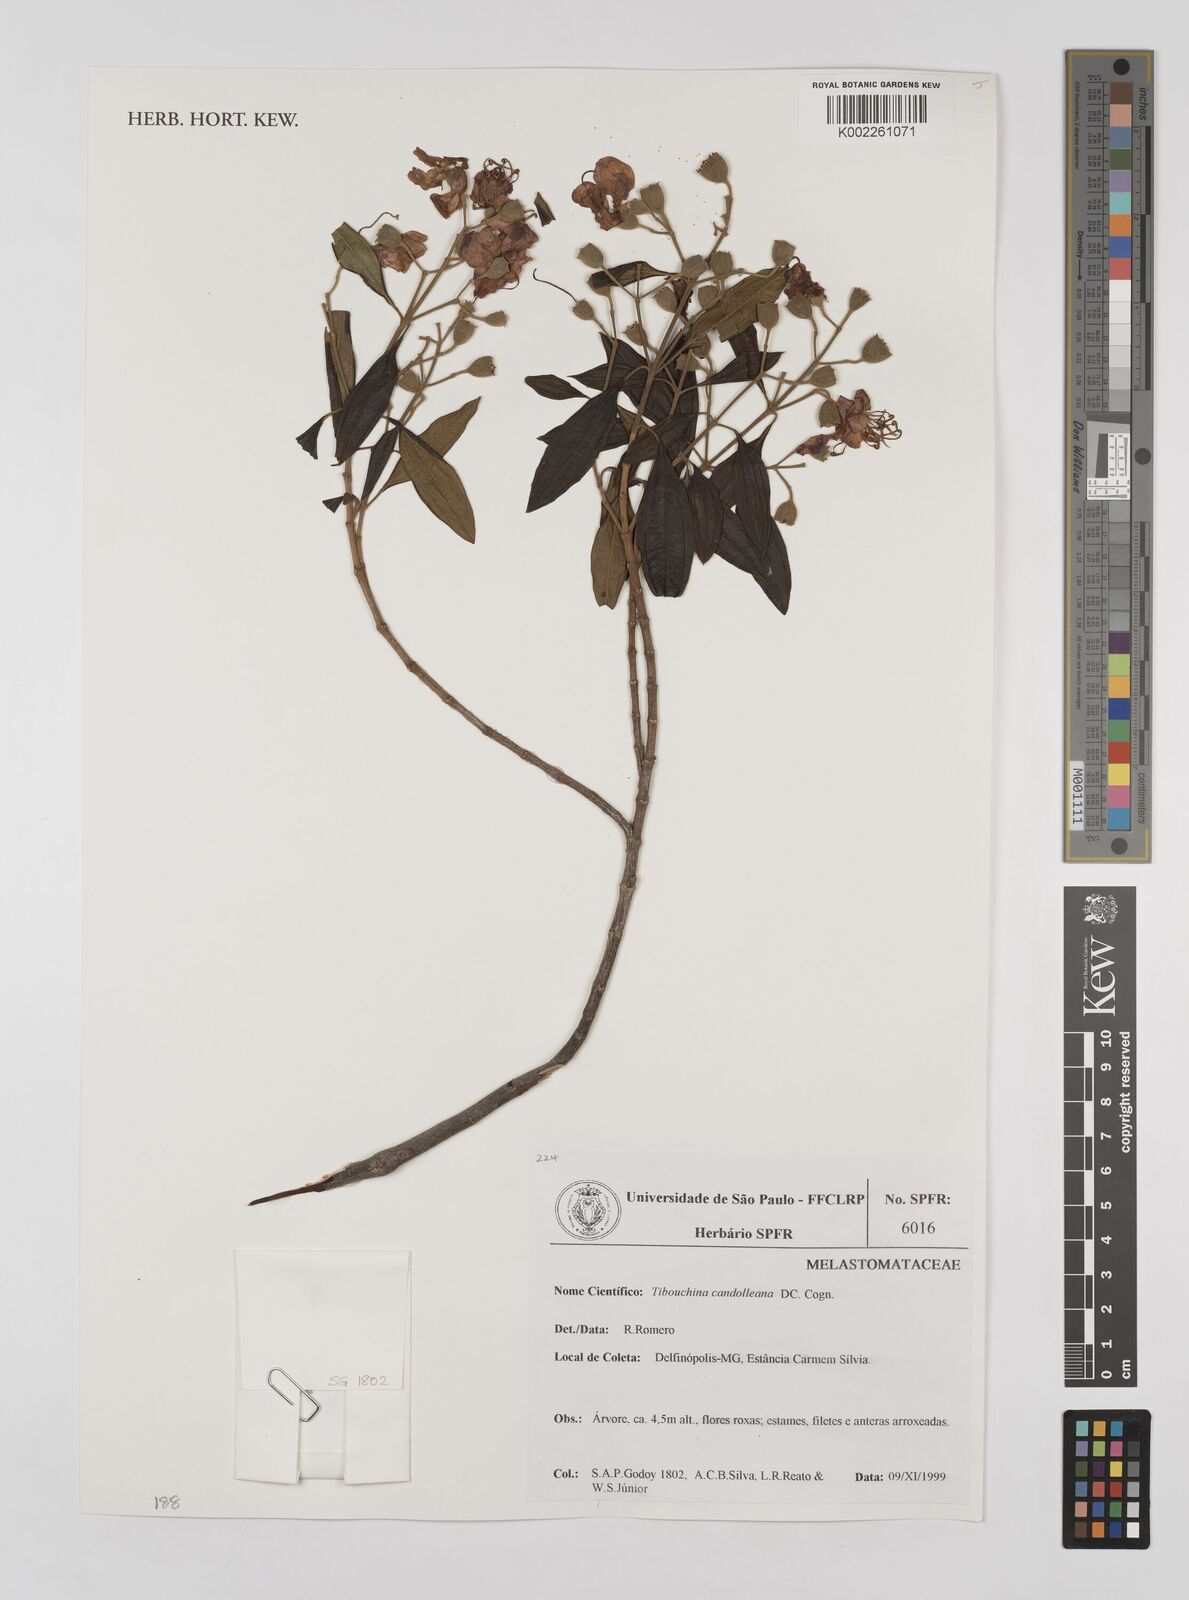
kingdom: Plantae
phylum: Tracheophyta
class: Magnoliopsida
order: Myrtales
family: Melastomataceae
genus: Pleroma
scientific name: Pleroma candolleanum
